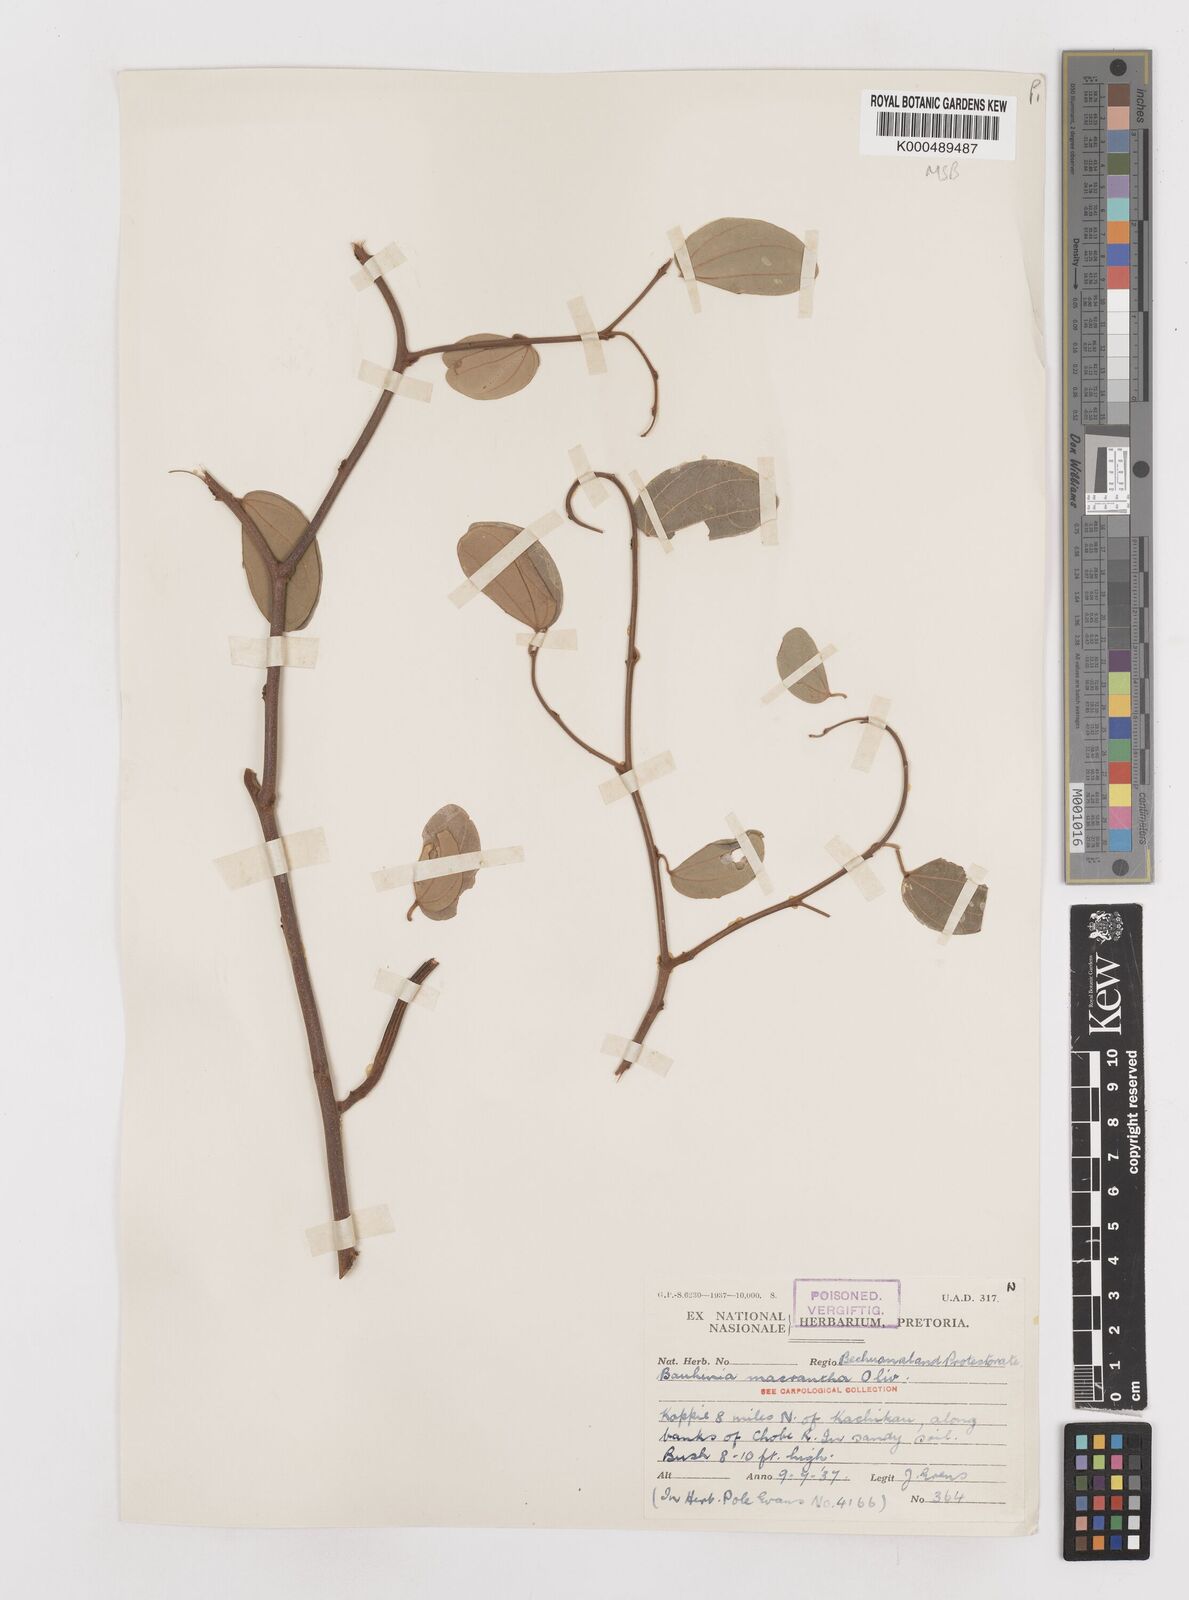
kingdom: Plantae
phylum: Tracheophyta
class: Magnoliopsida
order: Fabales
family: Fabaceae
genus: Bauhinia
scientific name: Bauhinia macrantha
